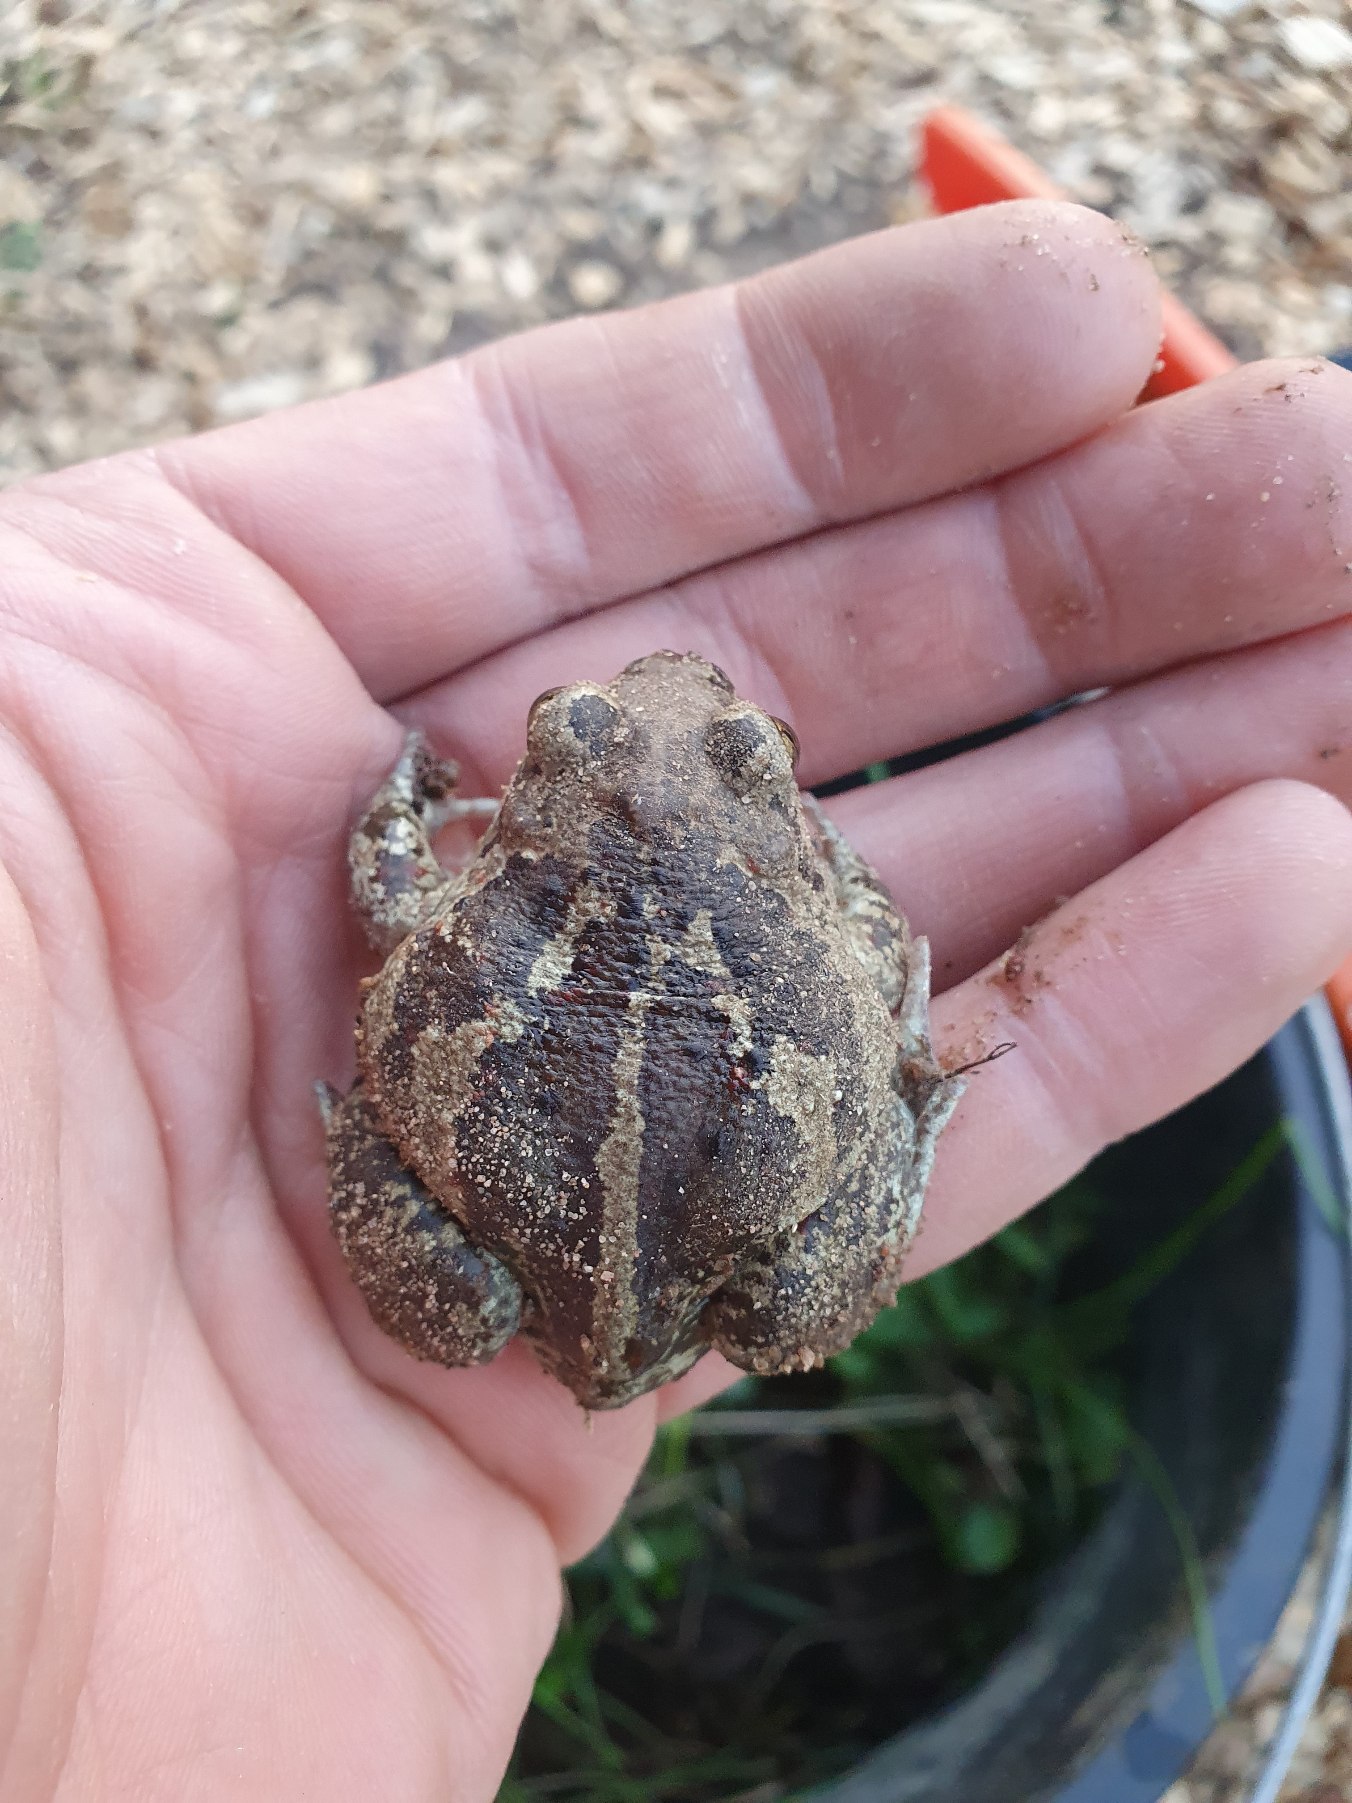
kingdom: Animalia
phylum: Chordata
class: Amphibia
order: Anura
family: Pelobatidae
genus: Pelobates
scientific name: Pelobates fuscus
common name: Løgfrø
